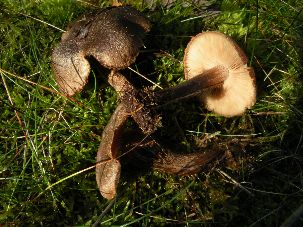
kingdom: Fungi
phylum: Basidiomycota
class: Agaricomycetes
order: Agaricales
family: Inocybaceae
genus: Inocybe
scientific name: Inocybe soluta
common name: lysbladet trævlhat
